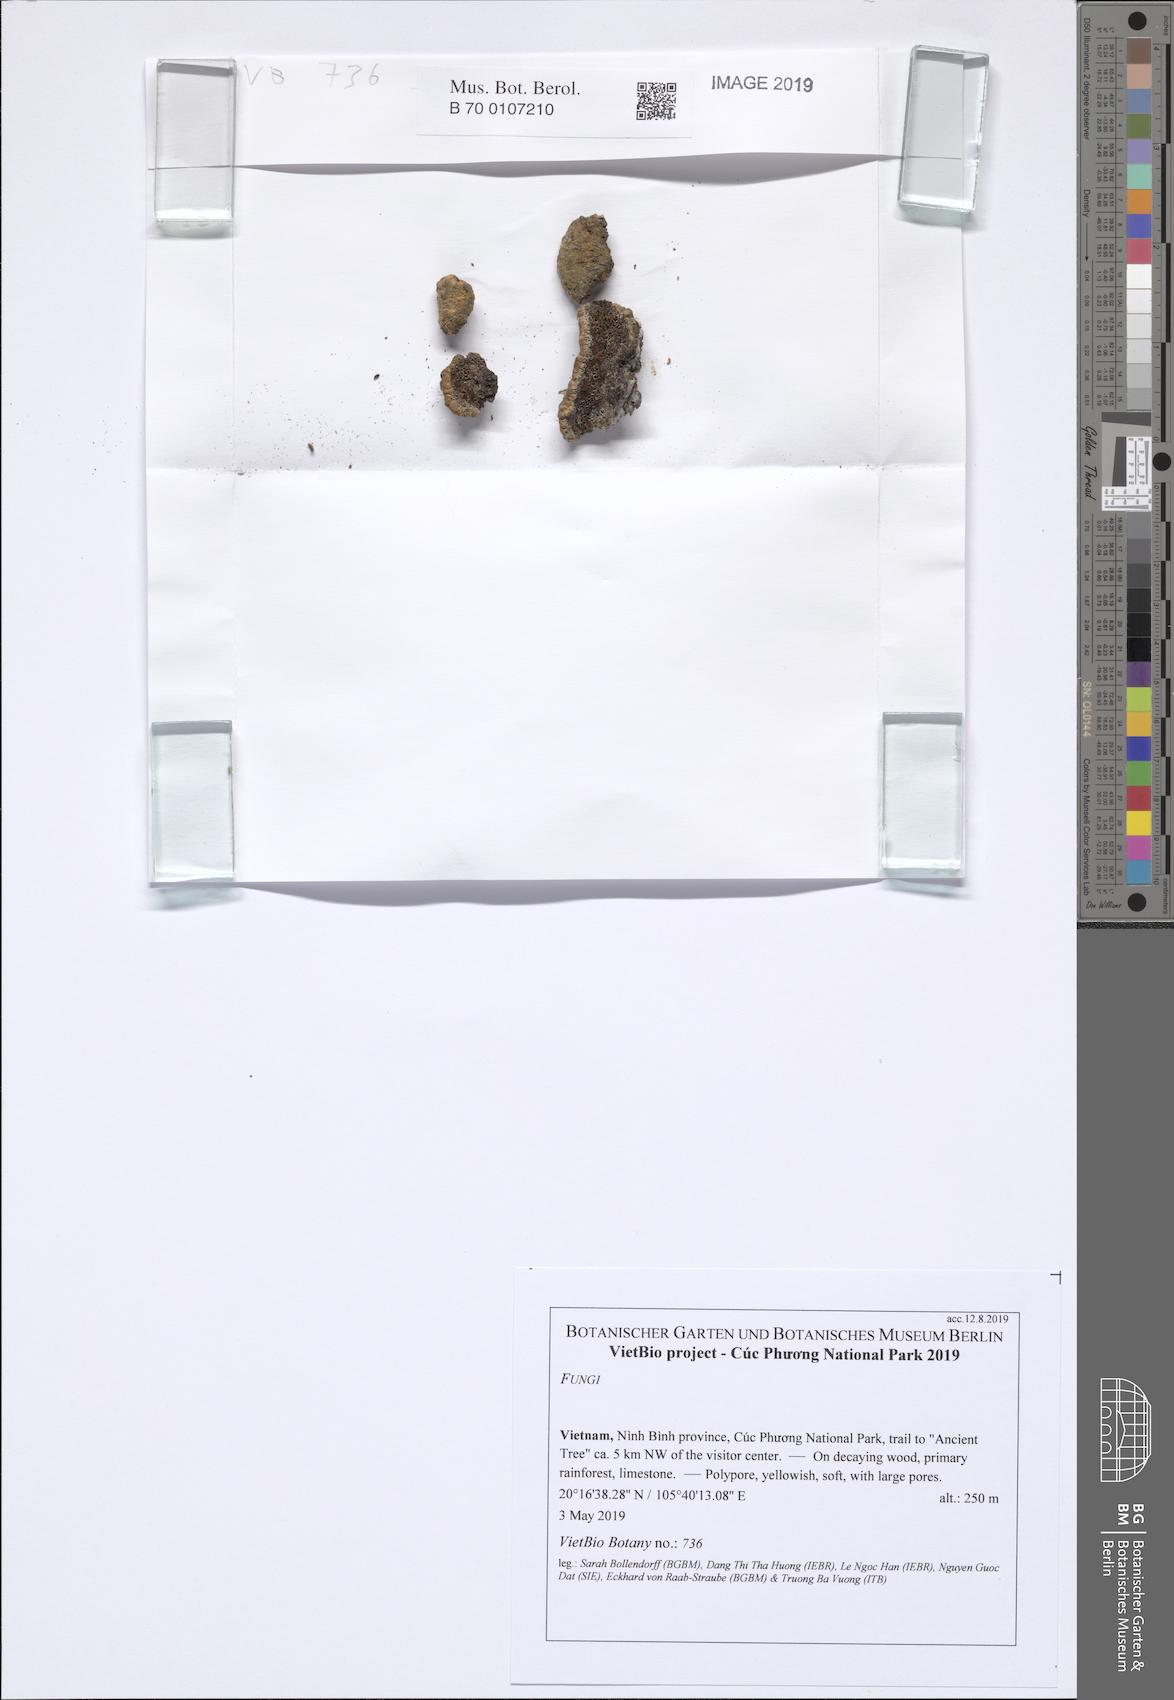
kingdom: Fungi
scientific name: Fungi
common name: Fungi
